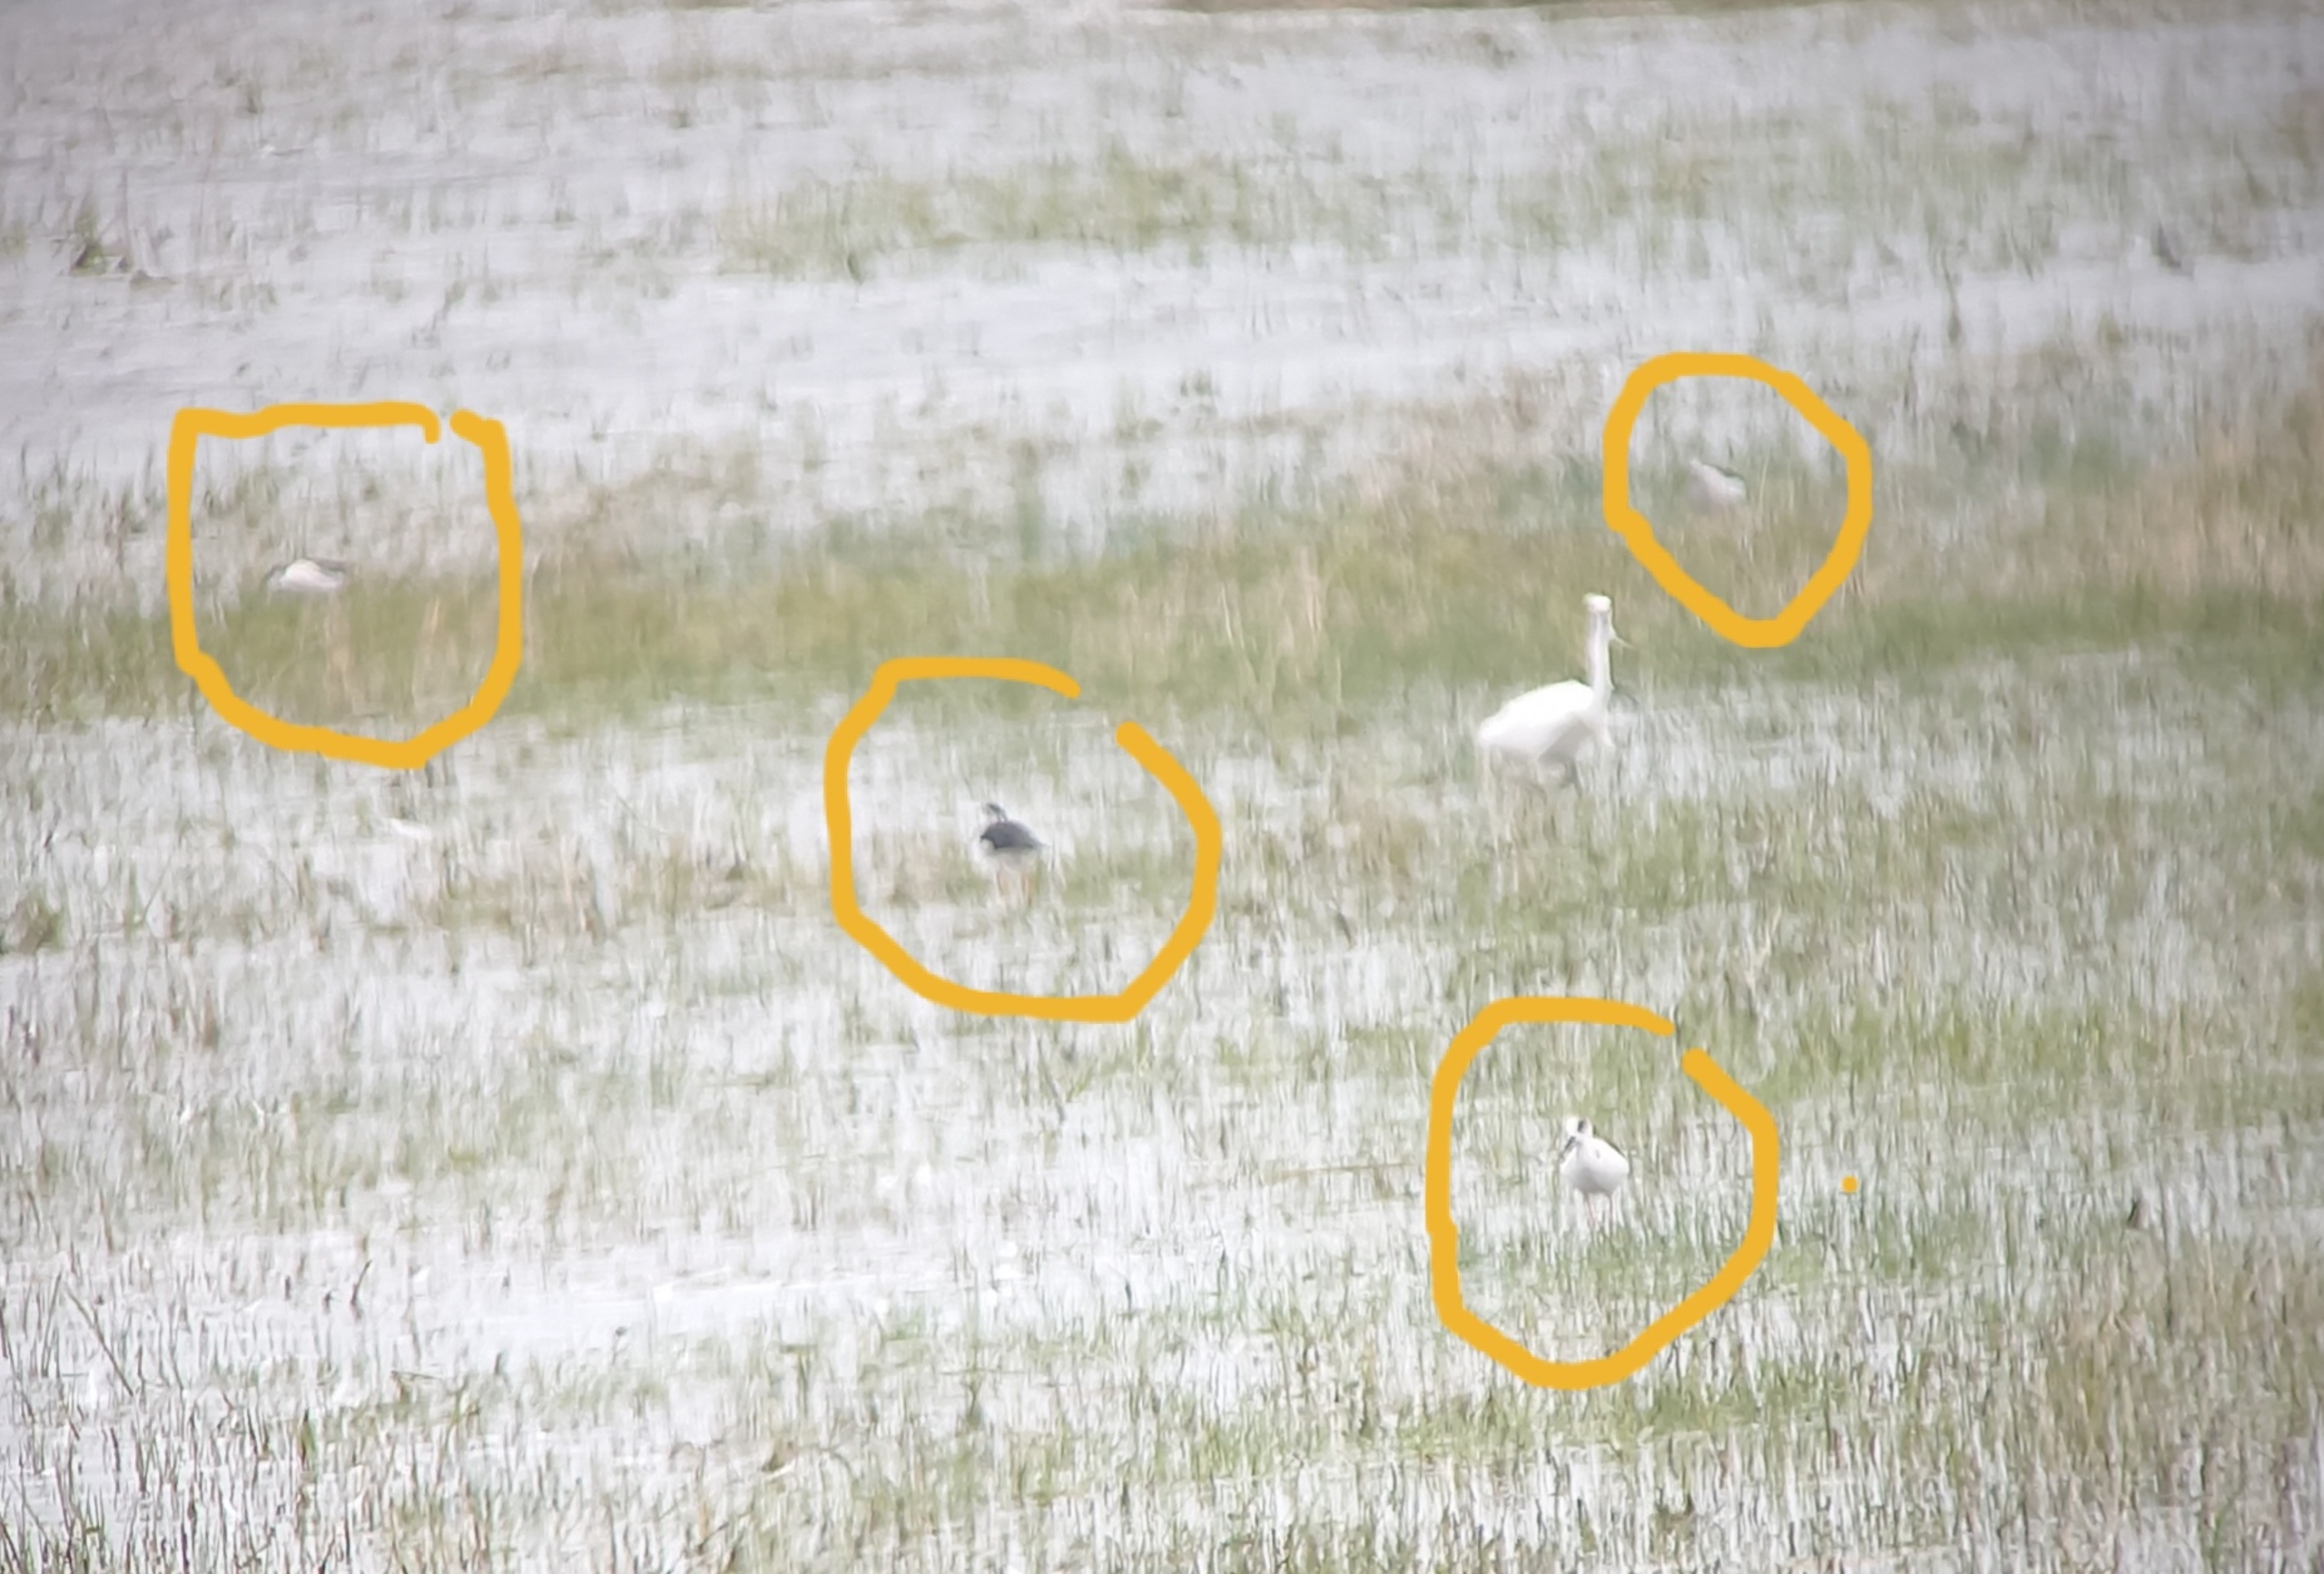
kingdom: Animalia
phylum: Chordata
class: Aves
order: Charadriiformes
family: Recurvirostridae
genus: Himantopus
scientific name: Himantopus himantopus
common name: Stylteløber
